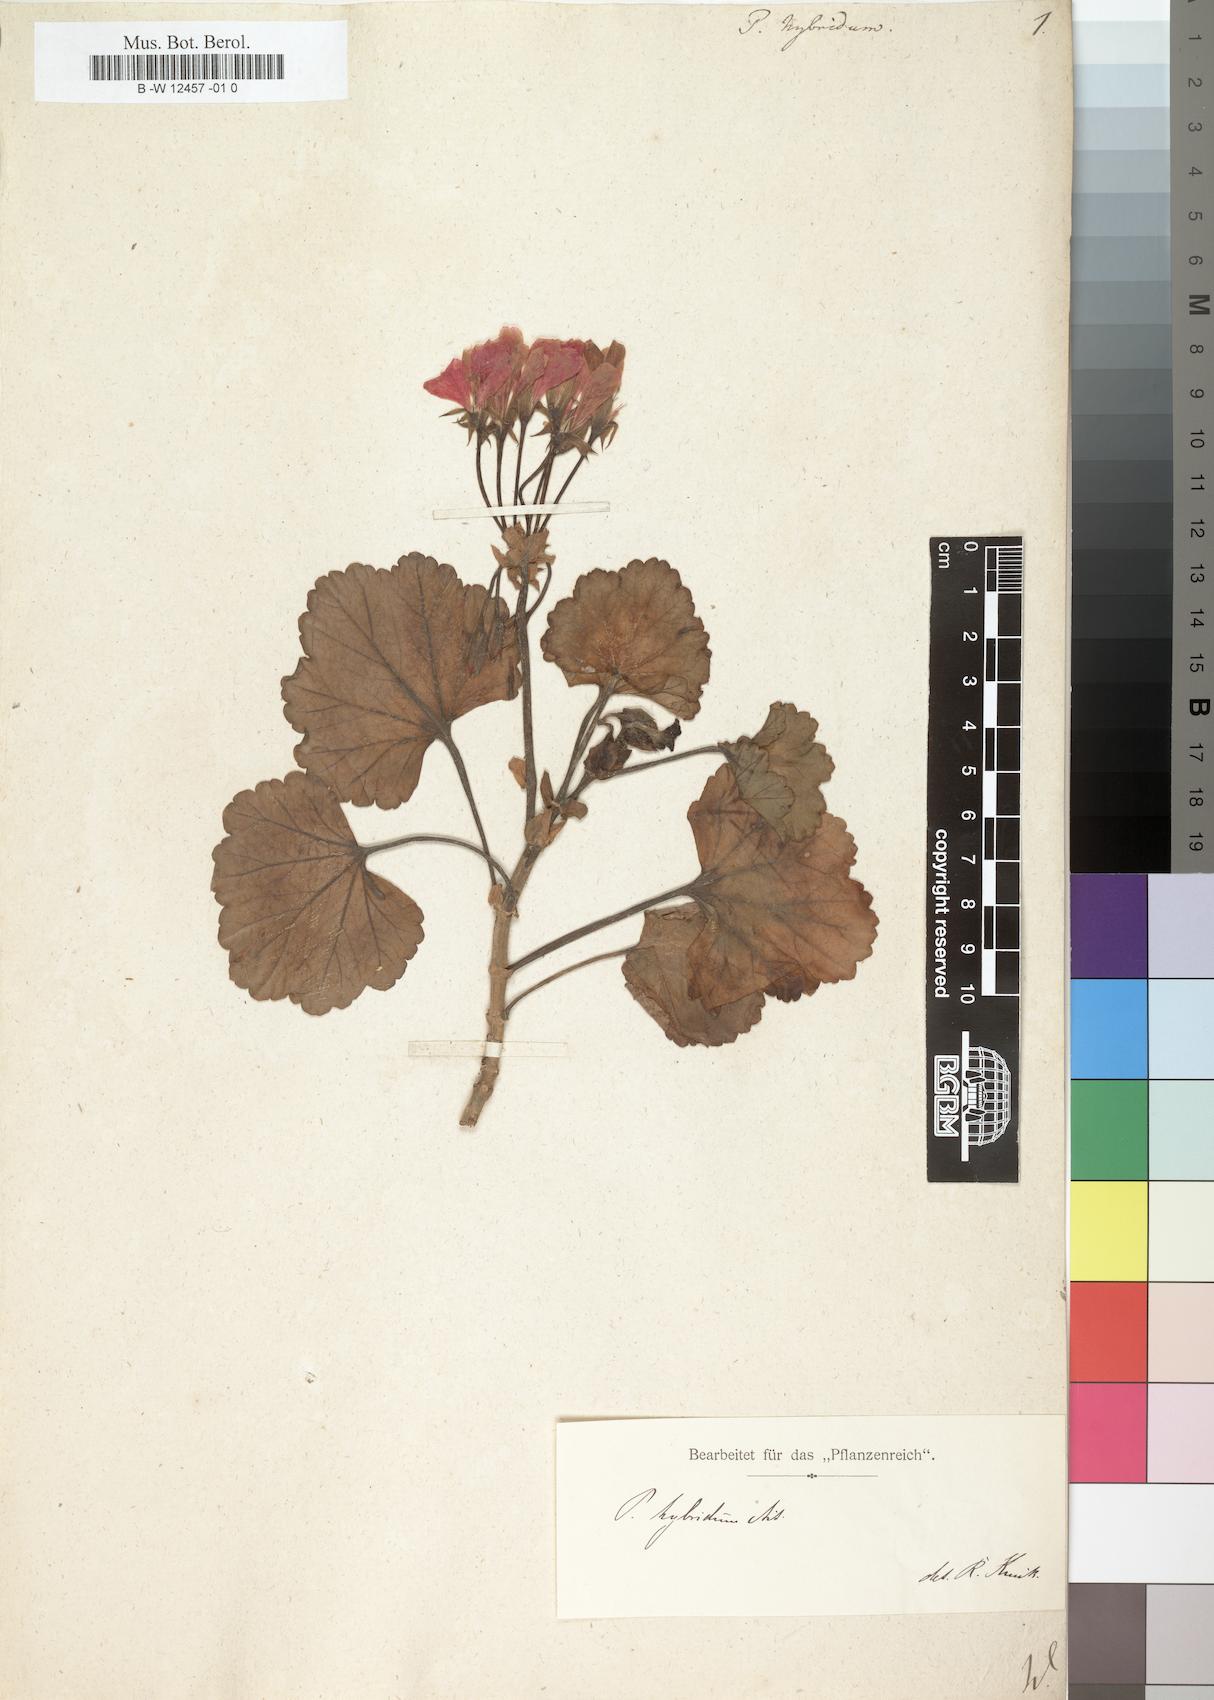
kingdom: Plantae
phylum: Tracheophyta
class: Magnoliopsida
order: Geraniales
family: Geraniaceae
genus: Pelargonium
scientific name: Pelargonium hybridum
